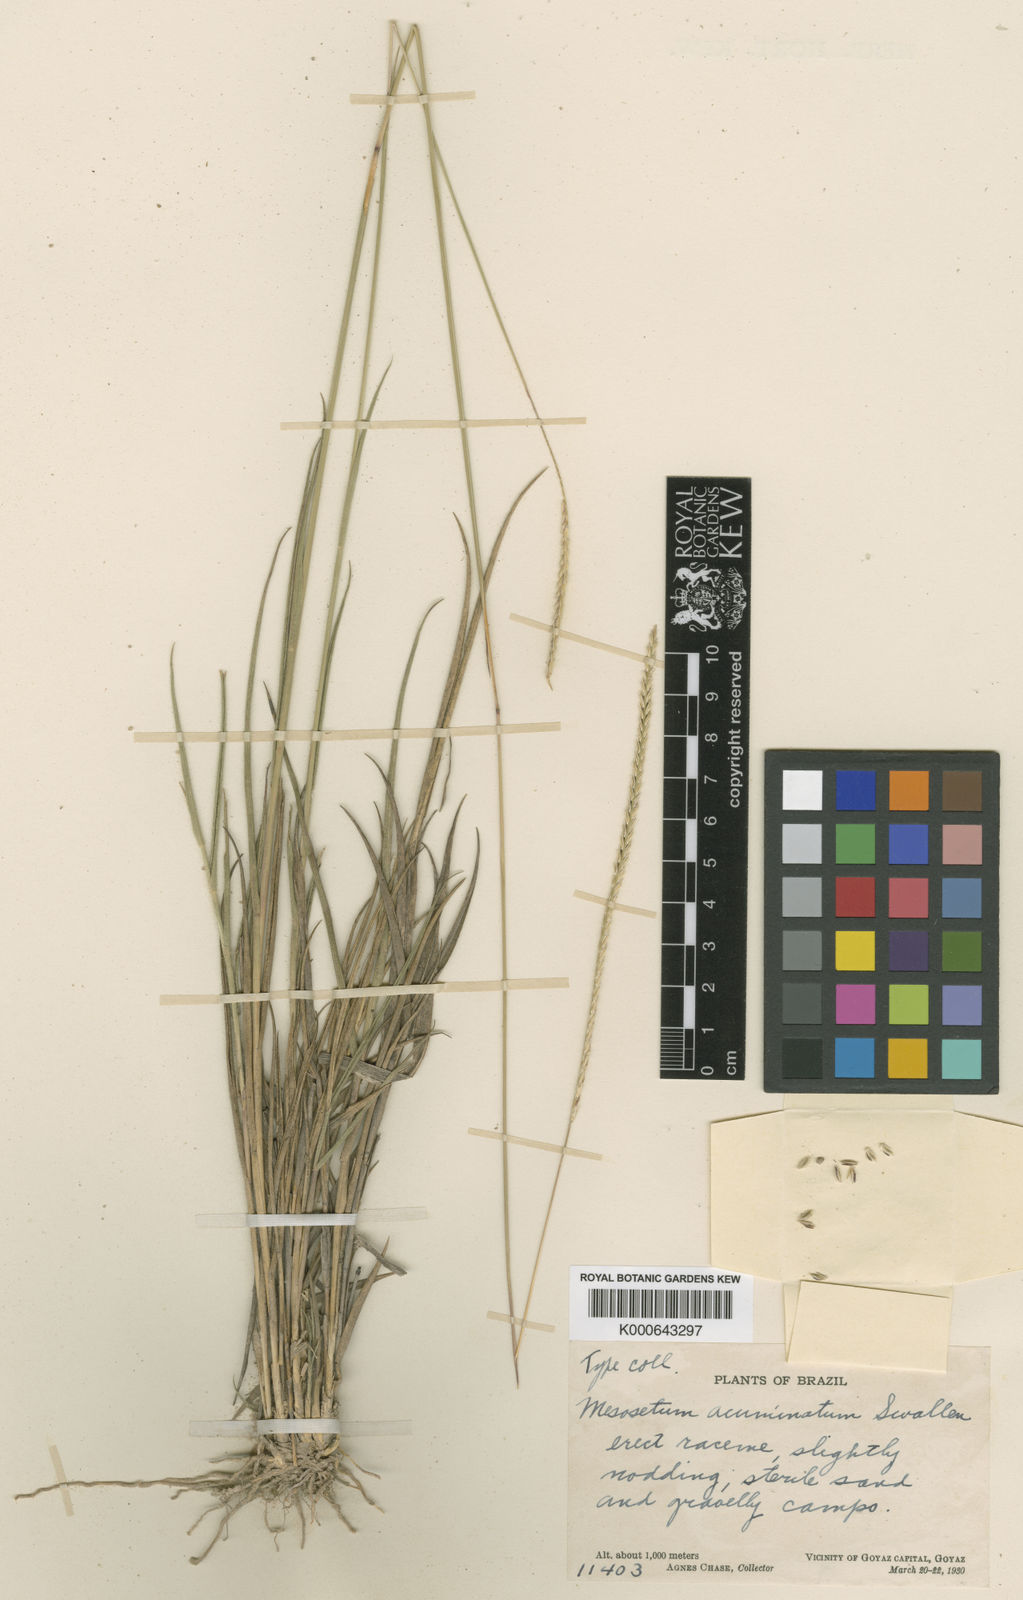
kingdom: Plantae
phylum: Tracheophyta
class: Liliopsida
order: Poales
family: Poaceae
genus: Mesosetum
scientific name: Mesosetum
